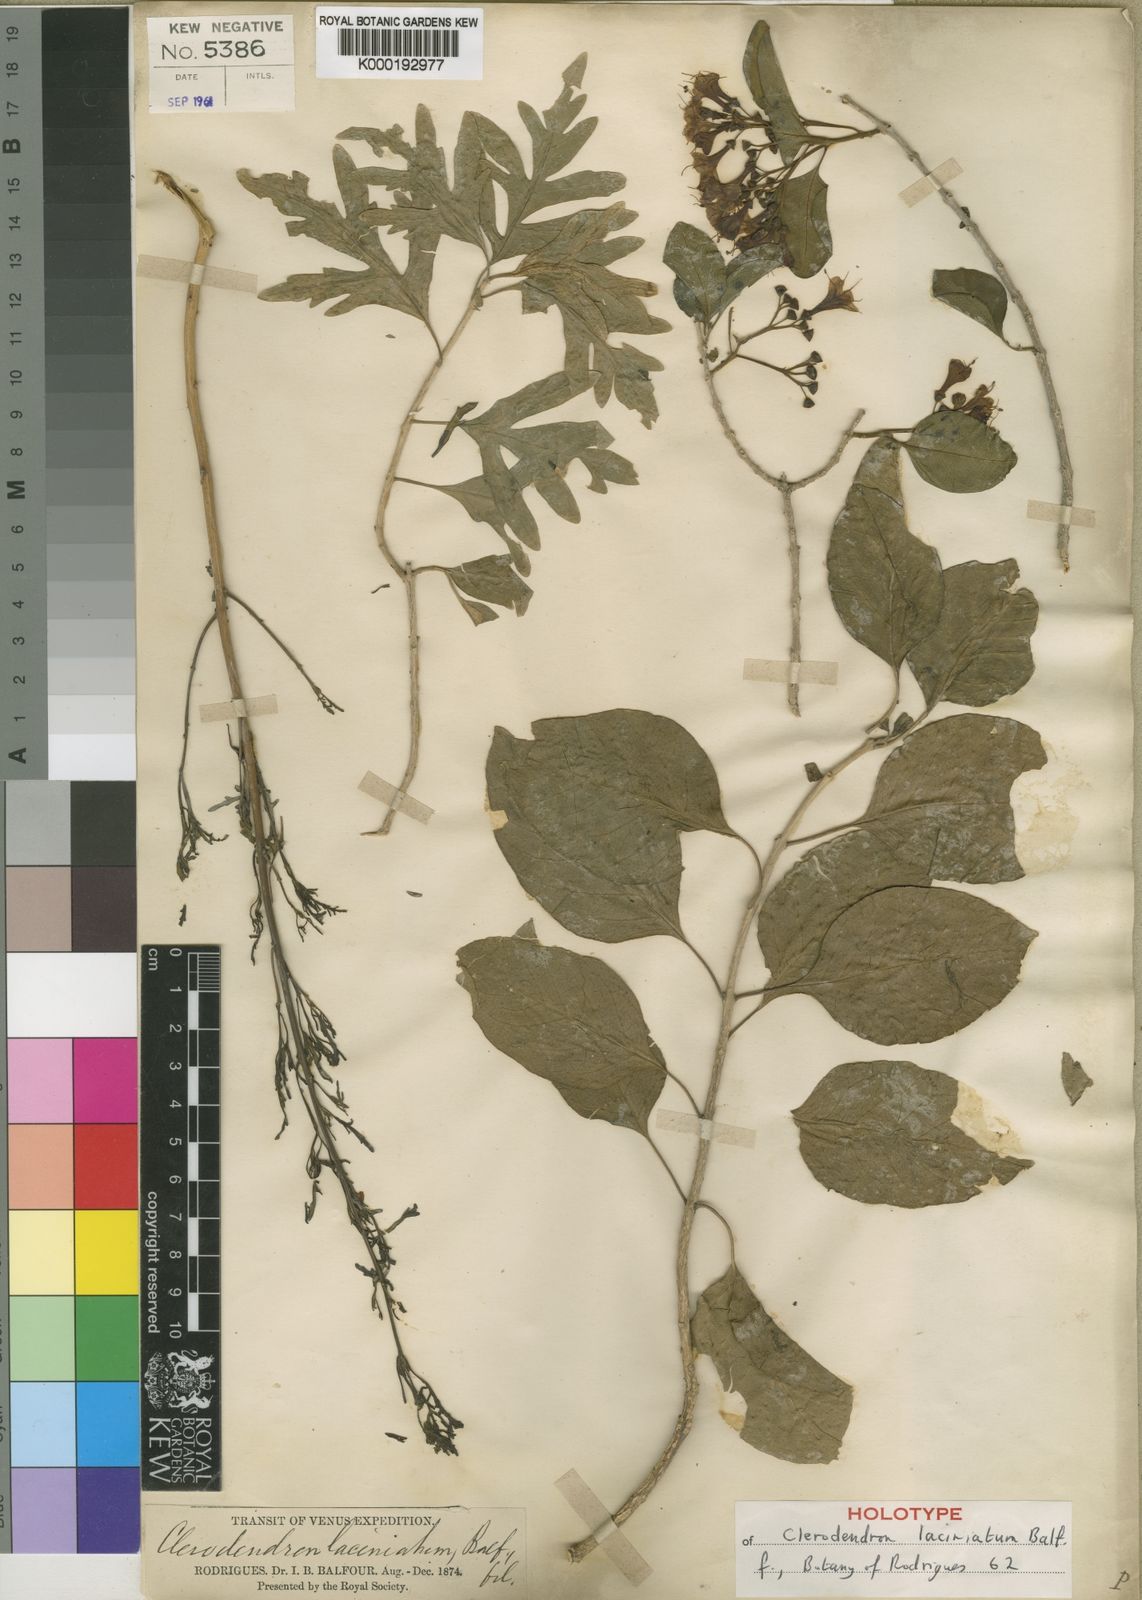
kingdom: Plantae
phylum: Tracheophyta
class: Magnoliopsida
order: Lamiales
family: Lamiaceae
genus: Clerodendrum
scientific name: Clerodendrum laciniatum
